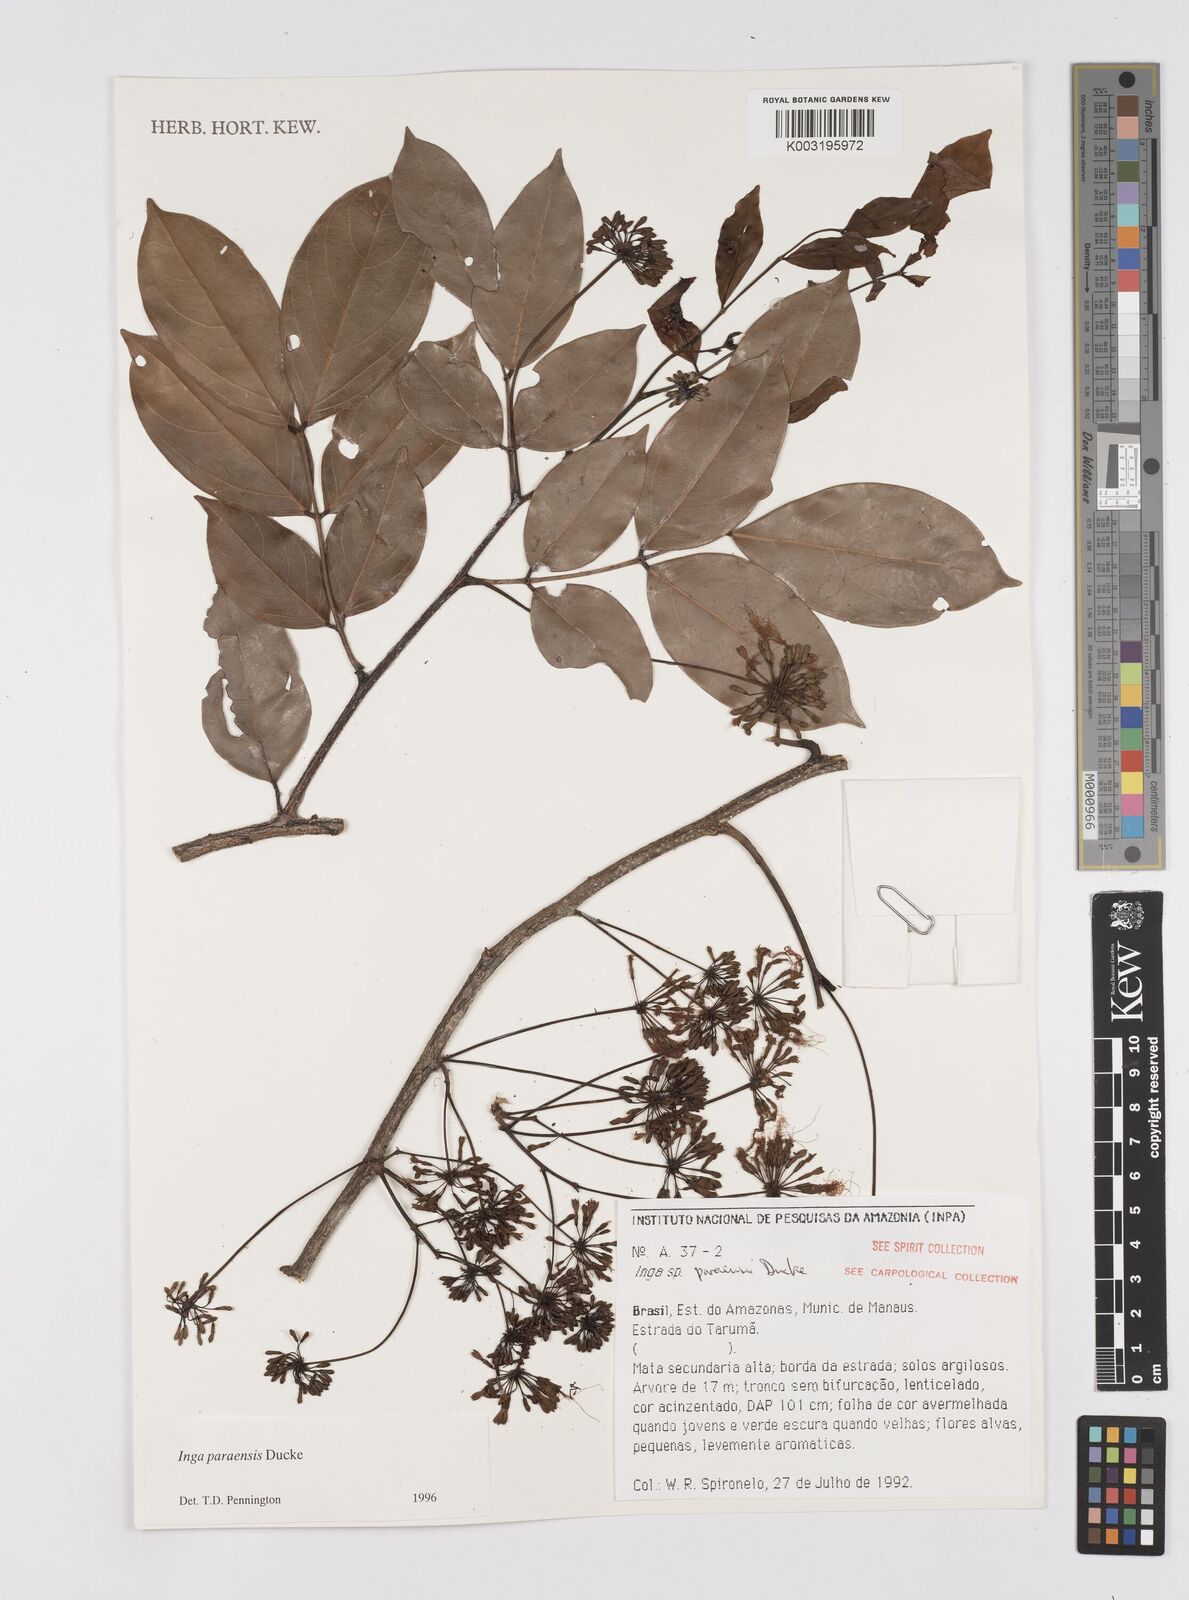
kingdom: Plantae
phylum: Tracheophyta
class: Magnoliopsida
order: Fabales
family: Fabaceae
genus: Inga
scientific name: Inga paraensis
